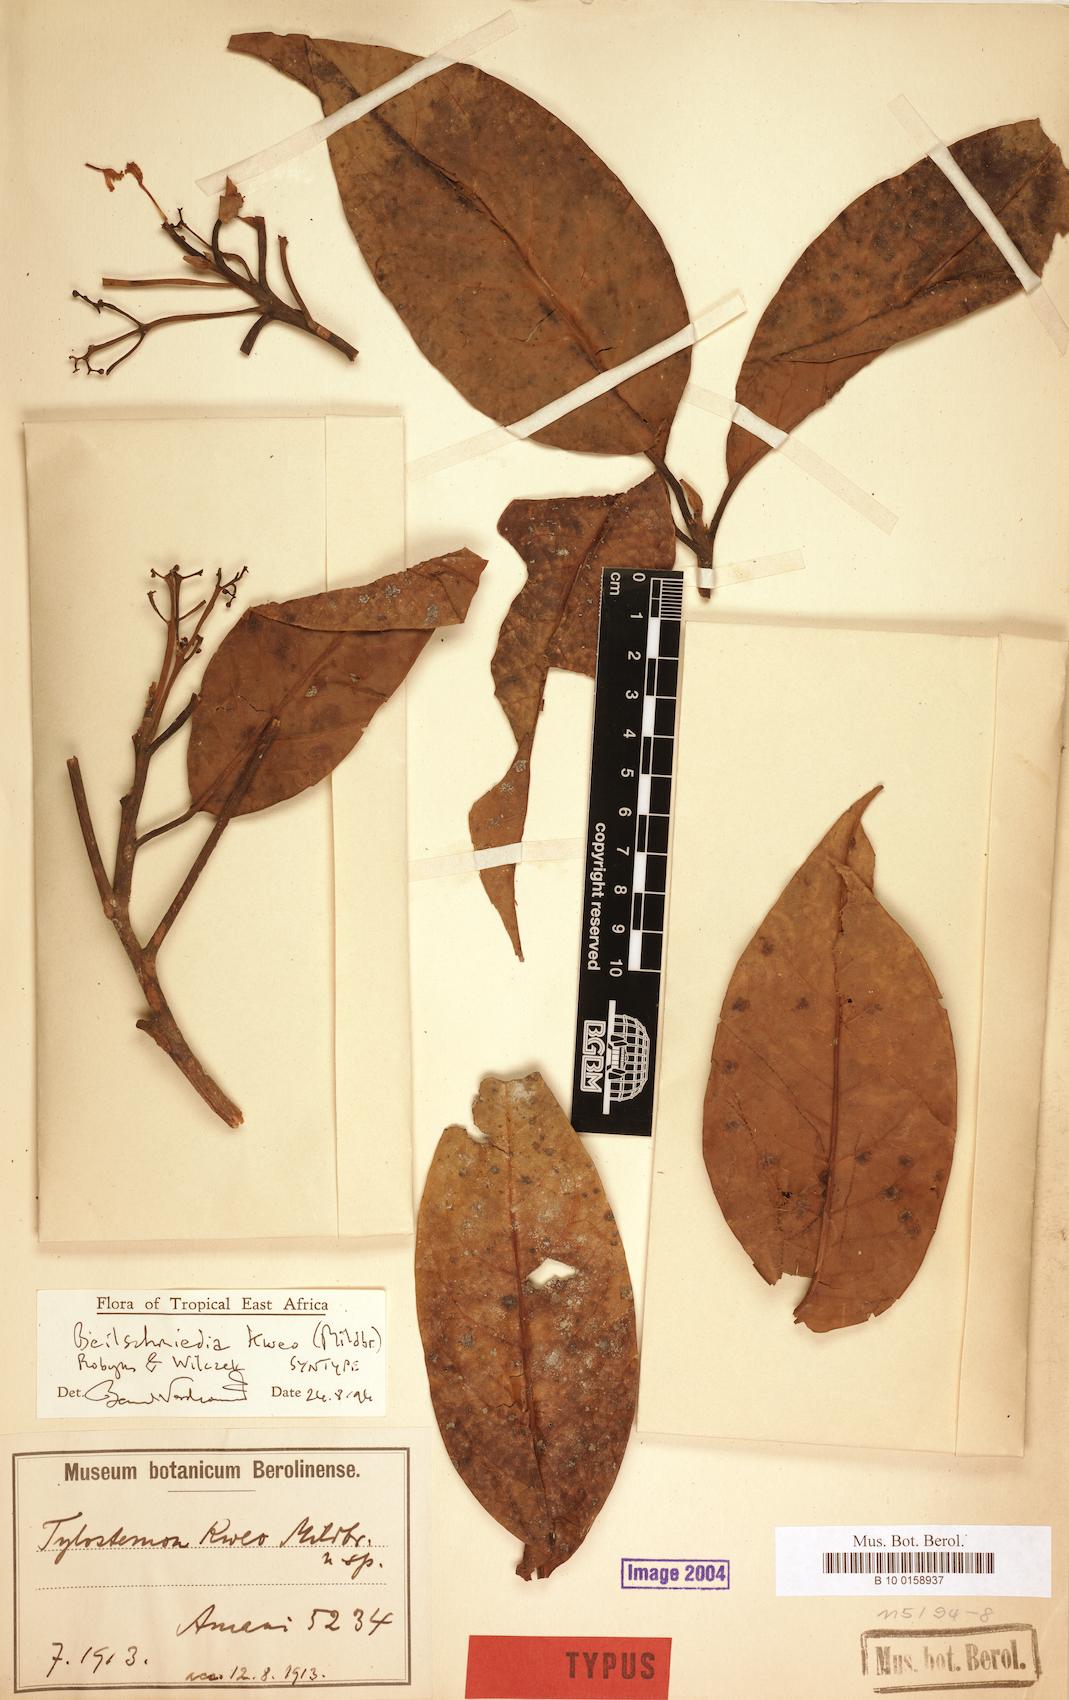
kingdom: Plantae
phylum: Tracheophyta
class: Magnoliopsida
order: Laurales
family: Lauraceae
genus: Beilschmiedia
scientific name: Beilschmiedia kweo
